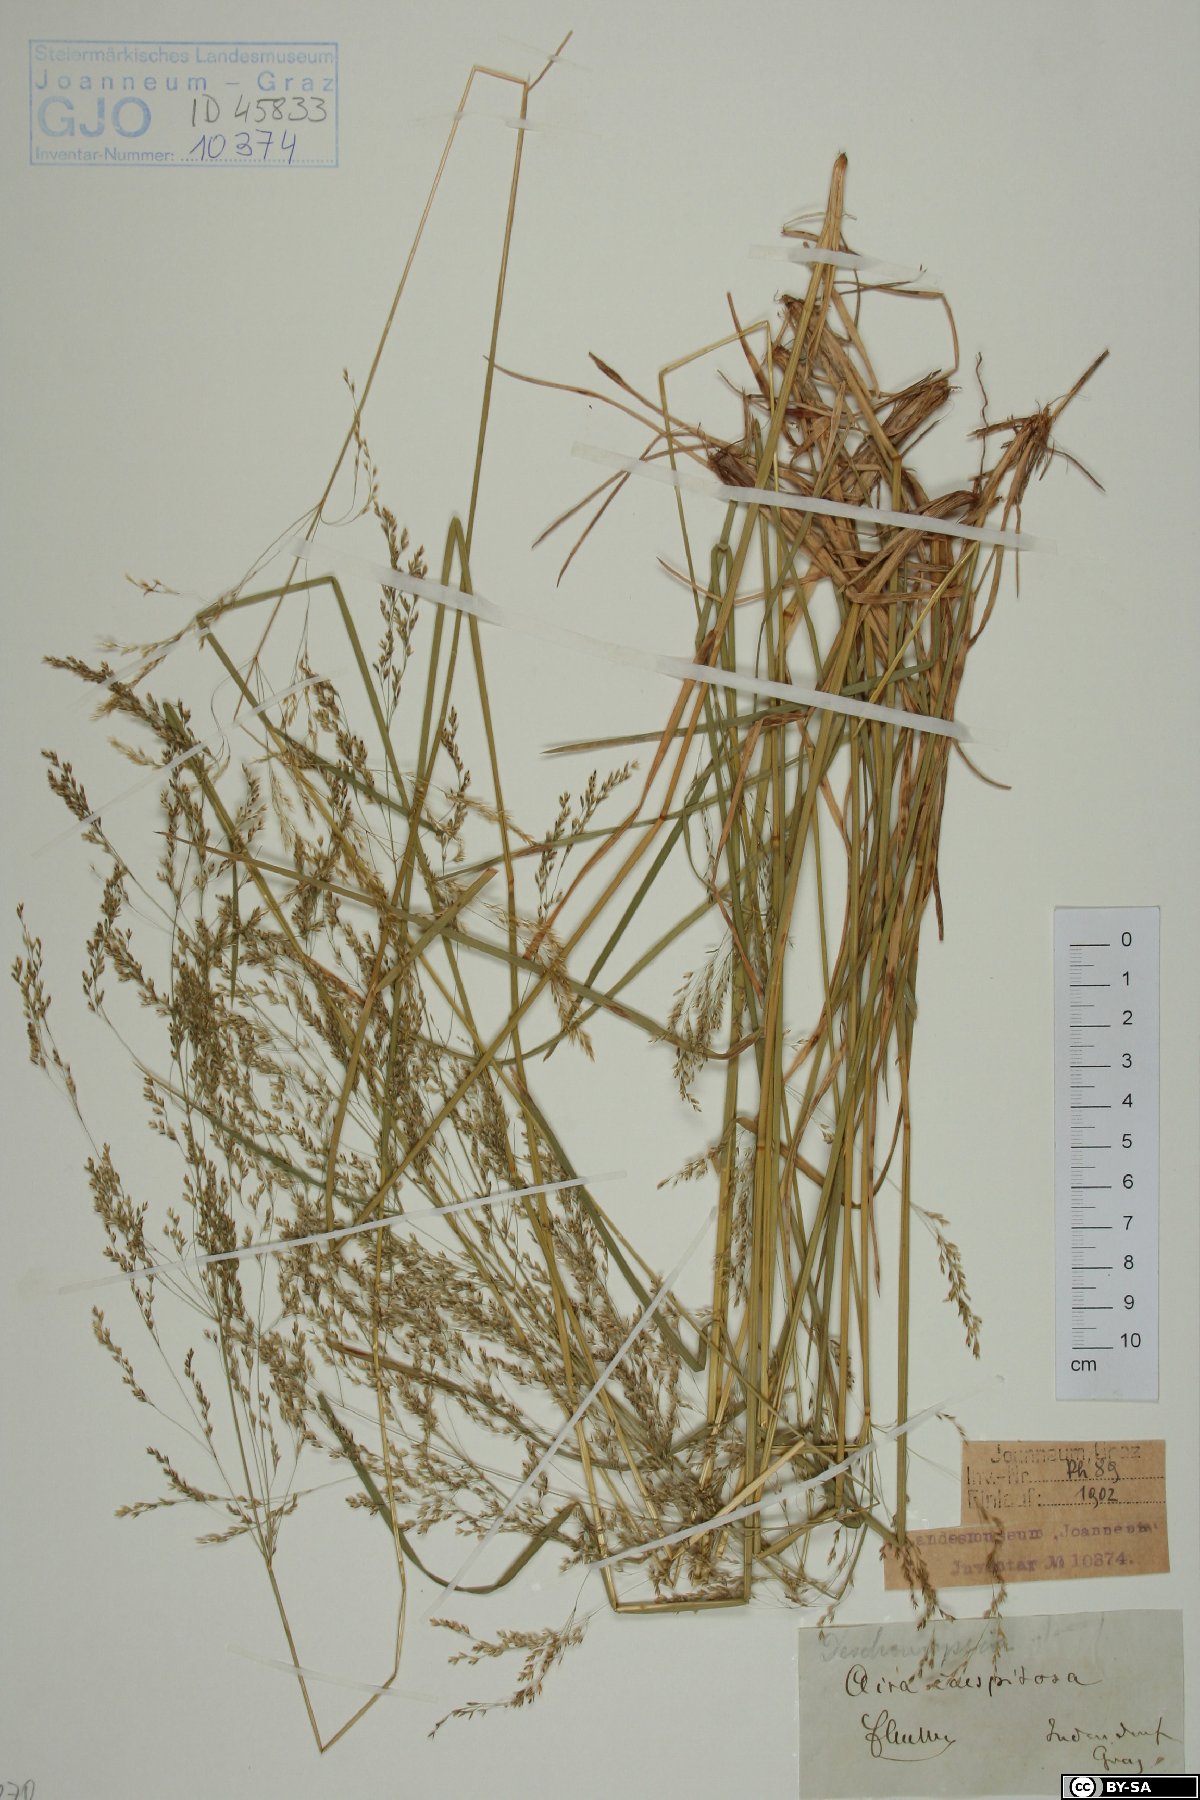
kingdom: Plantae
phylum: Tracheophyta
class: Liliopsida
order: Poales
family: Poaceae
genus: Deschampsia
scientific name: Deschampsia cespitosa
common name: Tufted hair-grass
